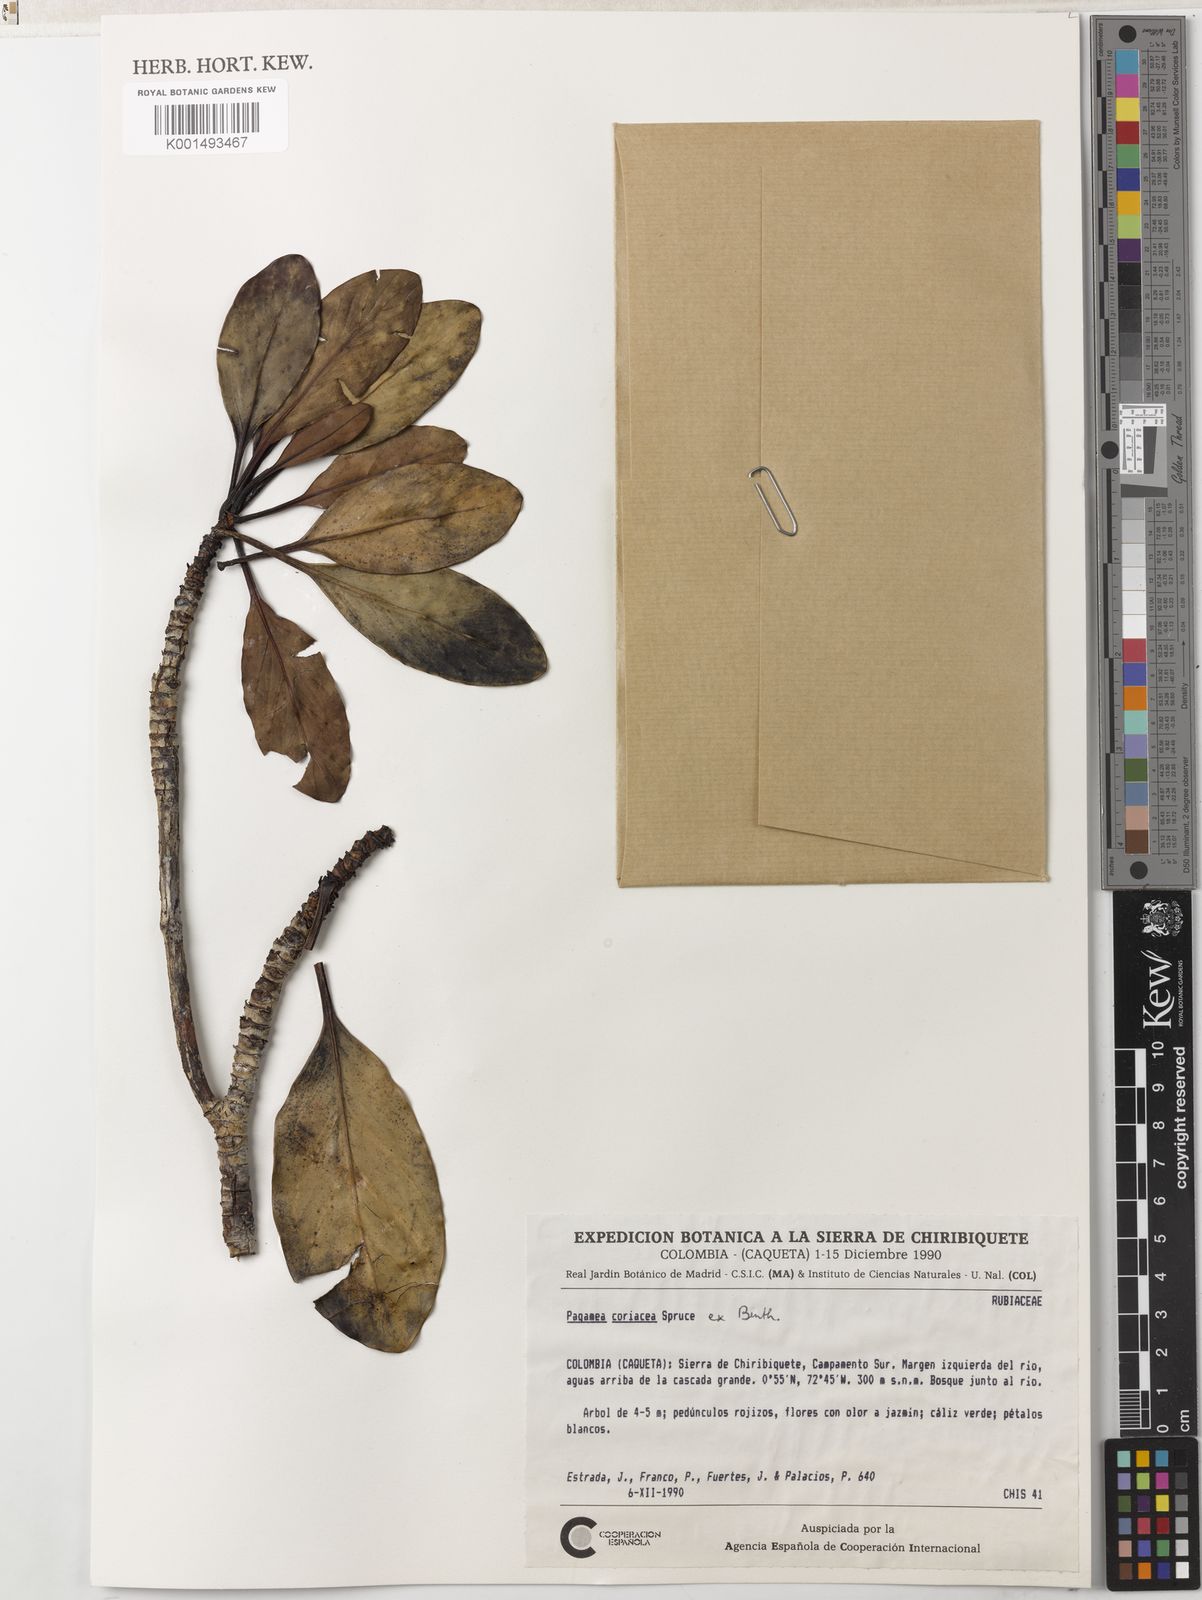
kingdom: Plantae
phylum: Tracheophyta
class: Magnoliopsida
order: Gentianales
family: Rubiaceae
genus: Pagamea
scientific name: Pagamea coriacea
